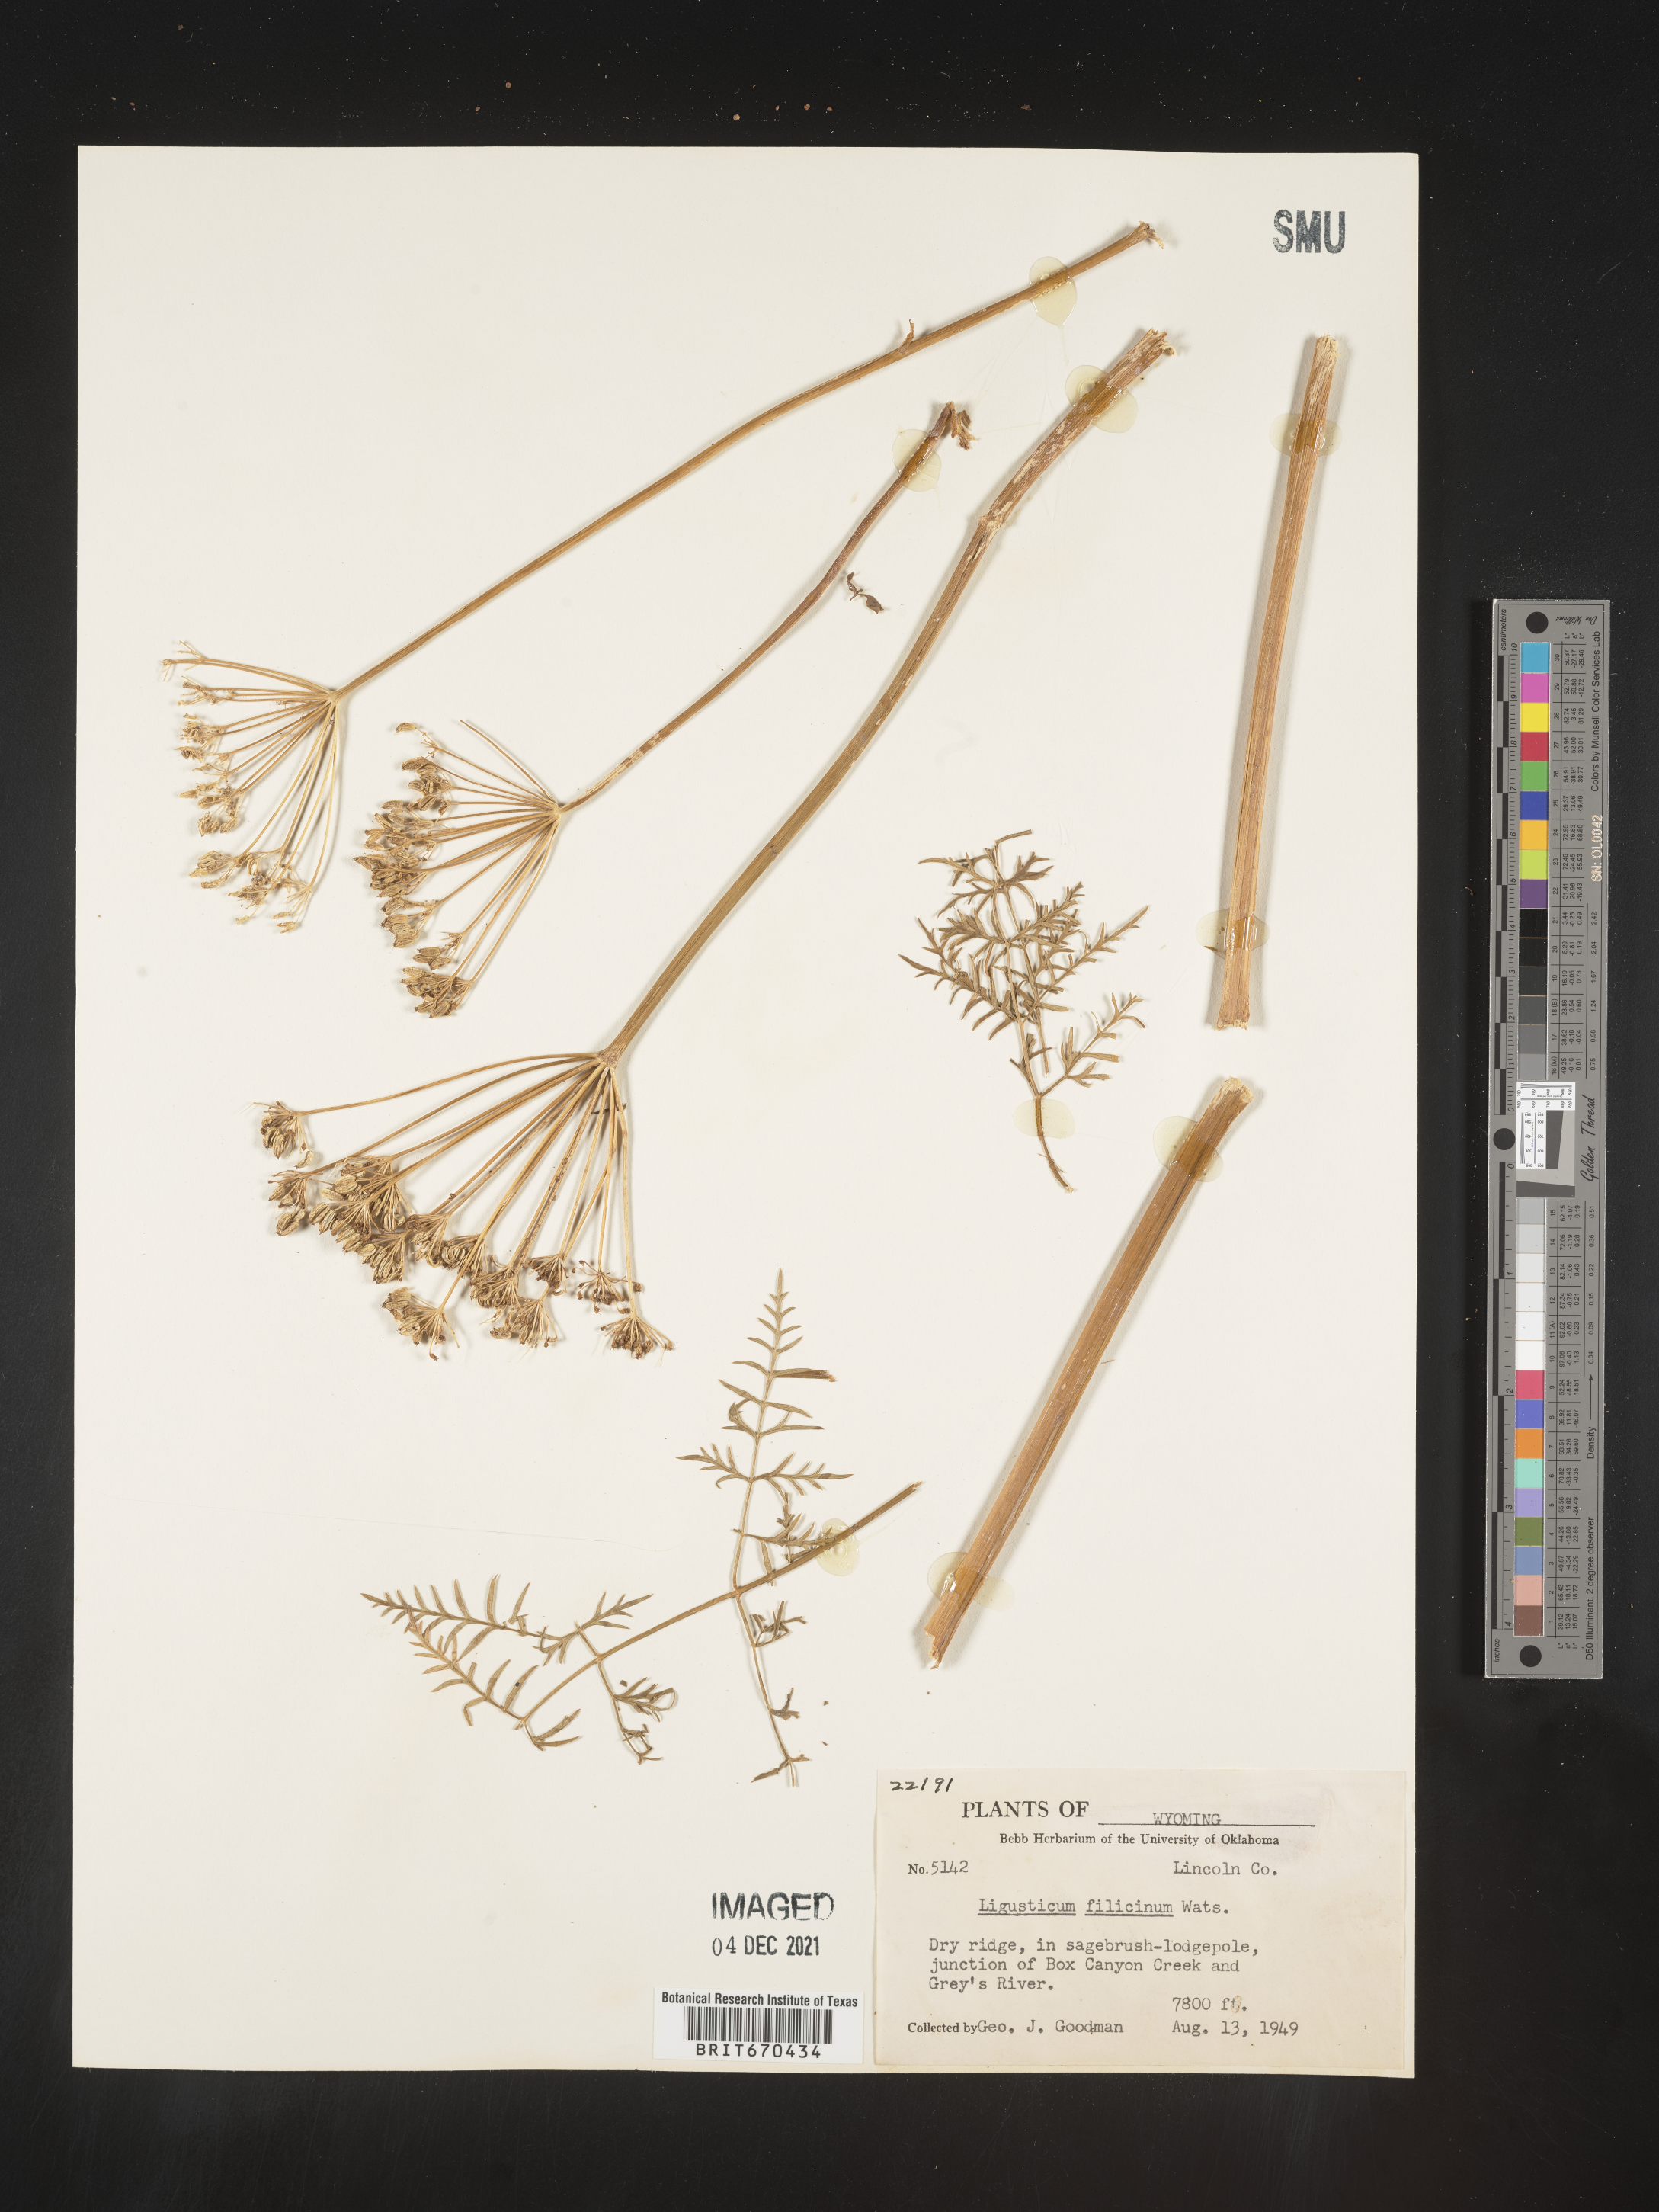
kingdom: Plantae
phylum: Tracheophyta
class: Magnoliopsida
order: Apiales
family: Apiaceae
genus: Ligusticum
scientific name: Ligusticum
